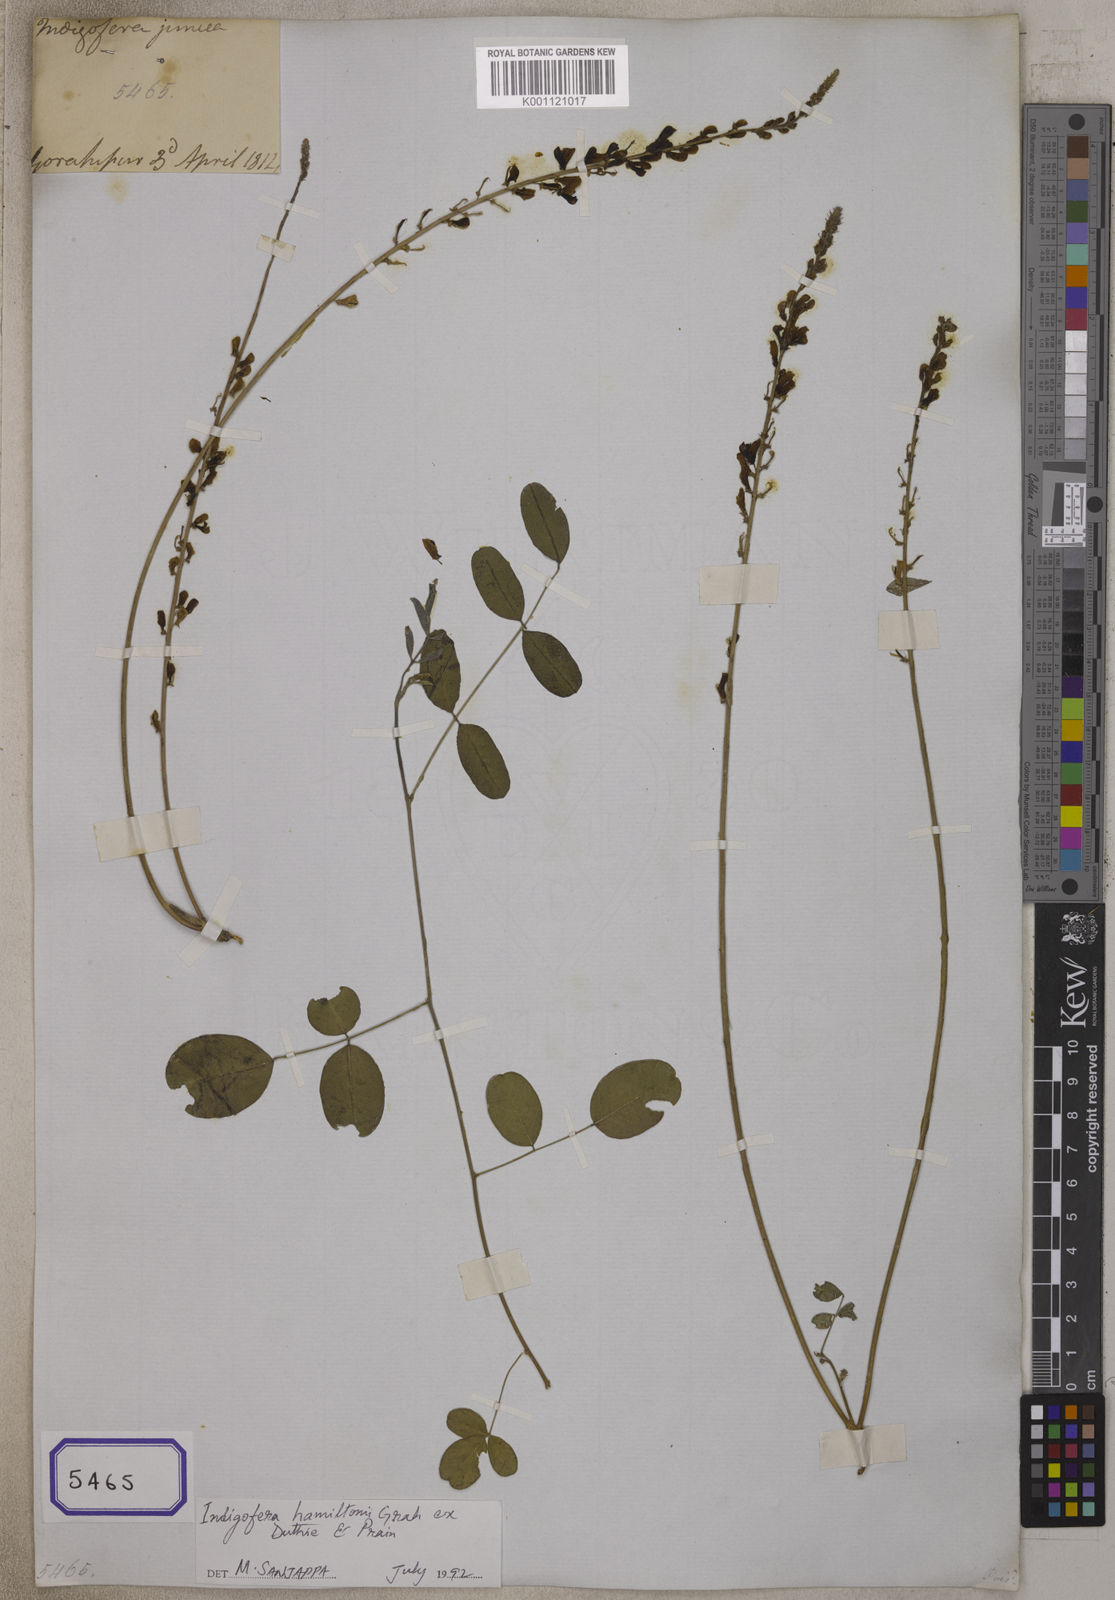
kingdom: Plantae
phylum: Tracheophyta
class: Magnoliopsida
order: Fabales
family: Fabaceae
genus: Indigofera
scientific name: Indigofera
